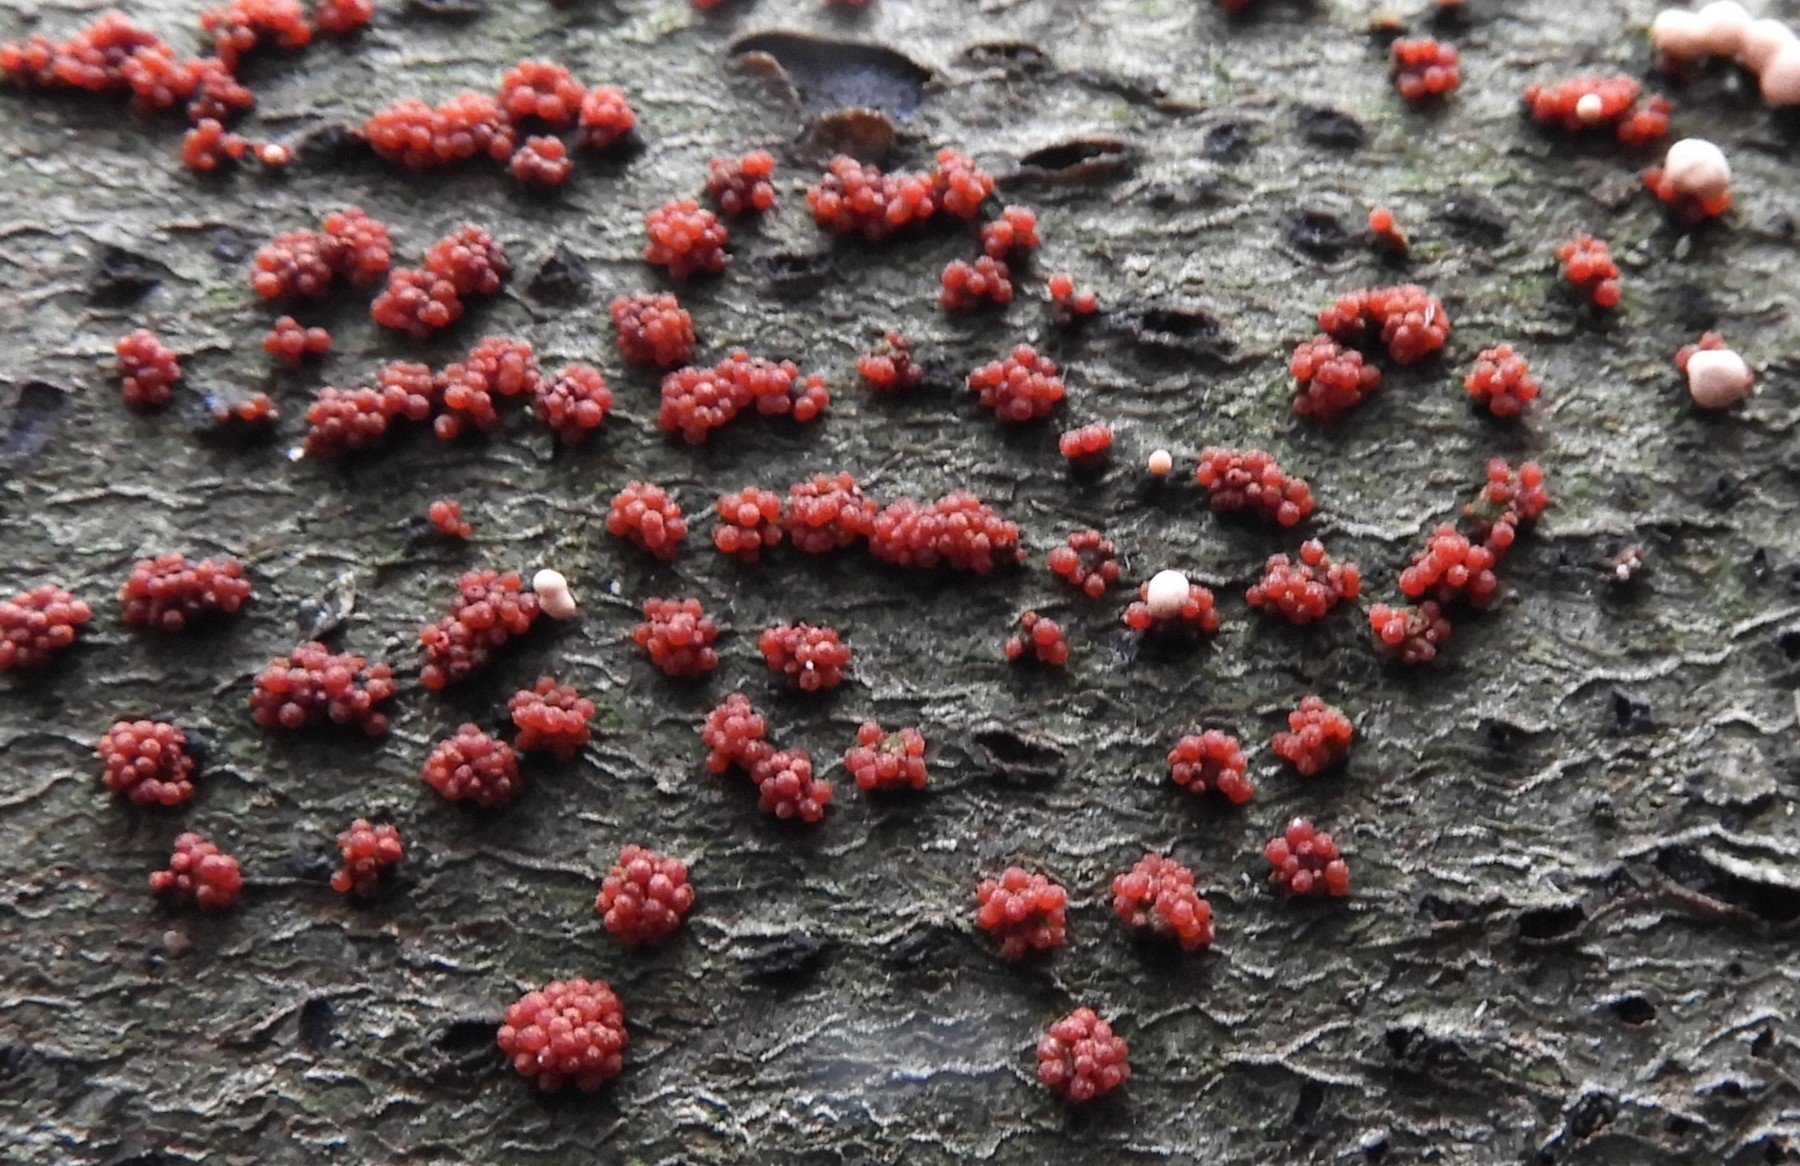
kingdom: Fungi
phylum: Ascomycota
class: Sordariomycetes
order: Hypocreales
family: Nectriaceae
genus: Nectria
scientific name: Nectria cinnabarina
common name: almindelig cinnobersvamp
